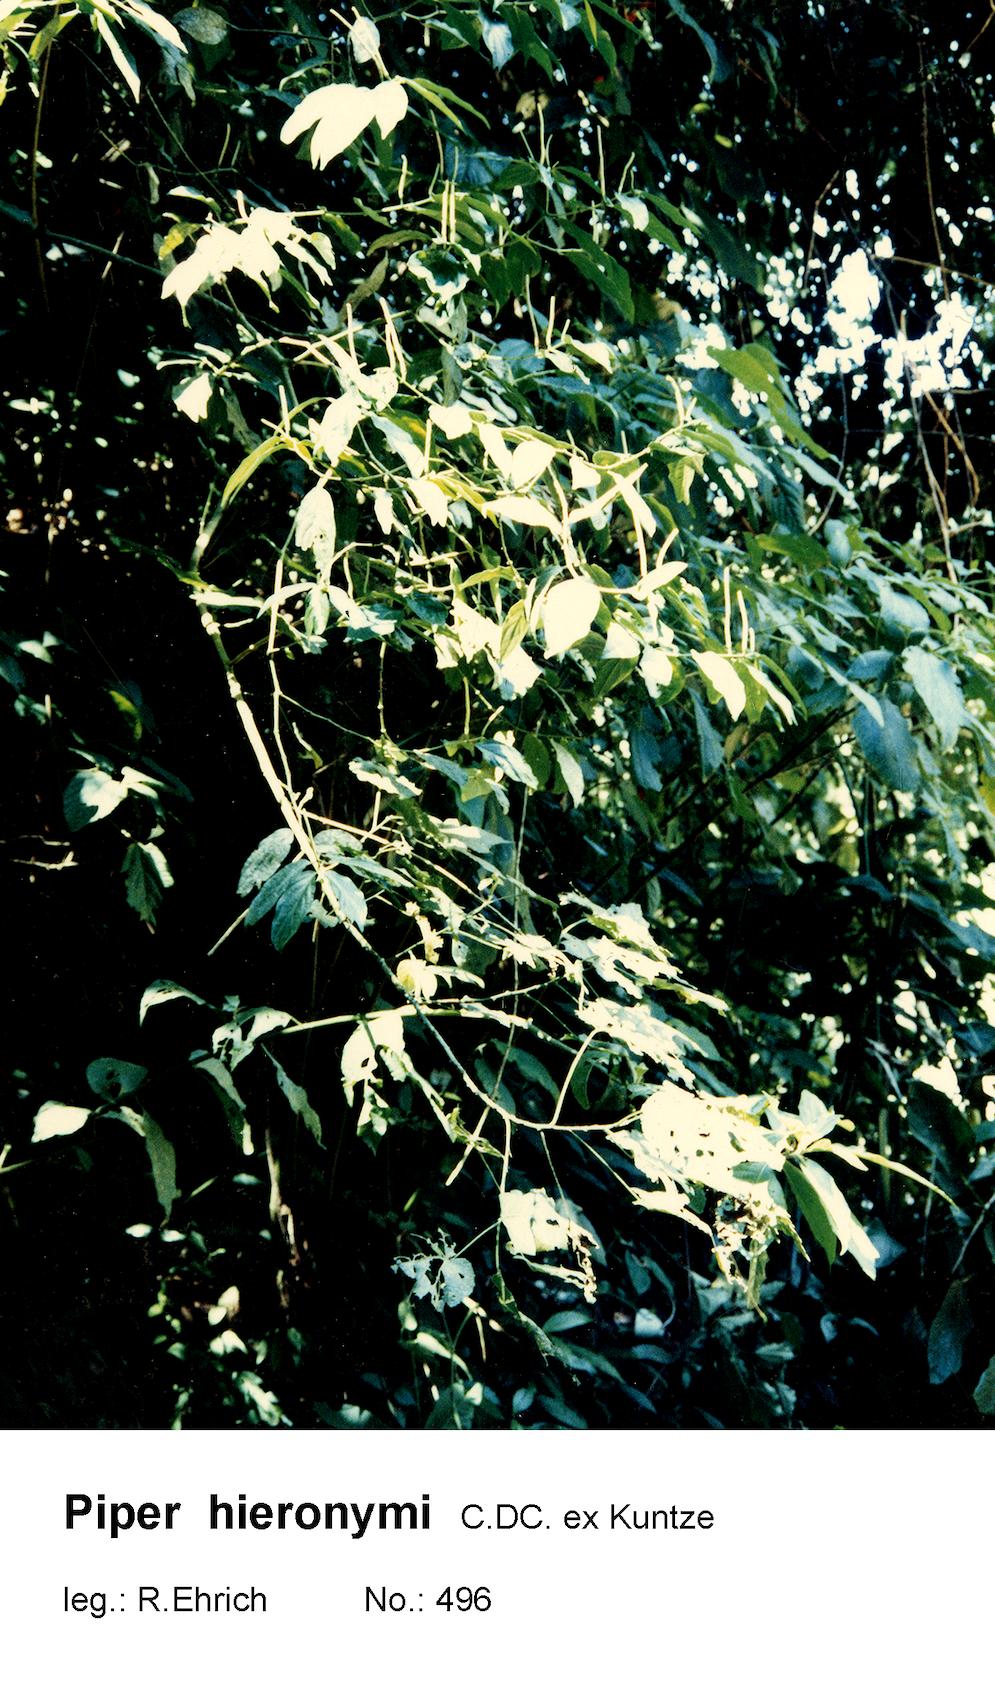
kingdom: Plantae
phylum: Tracheophyta
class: Magnoliopsida
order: Piperales
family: Piperaceae
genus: Piper
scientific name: Piper umbricola
